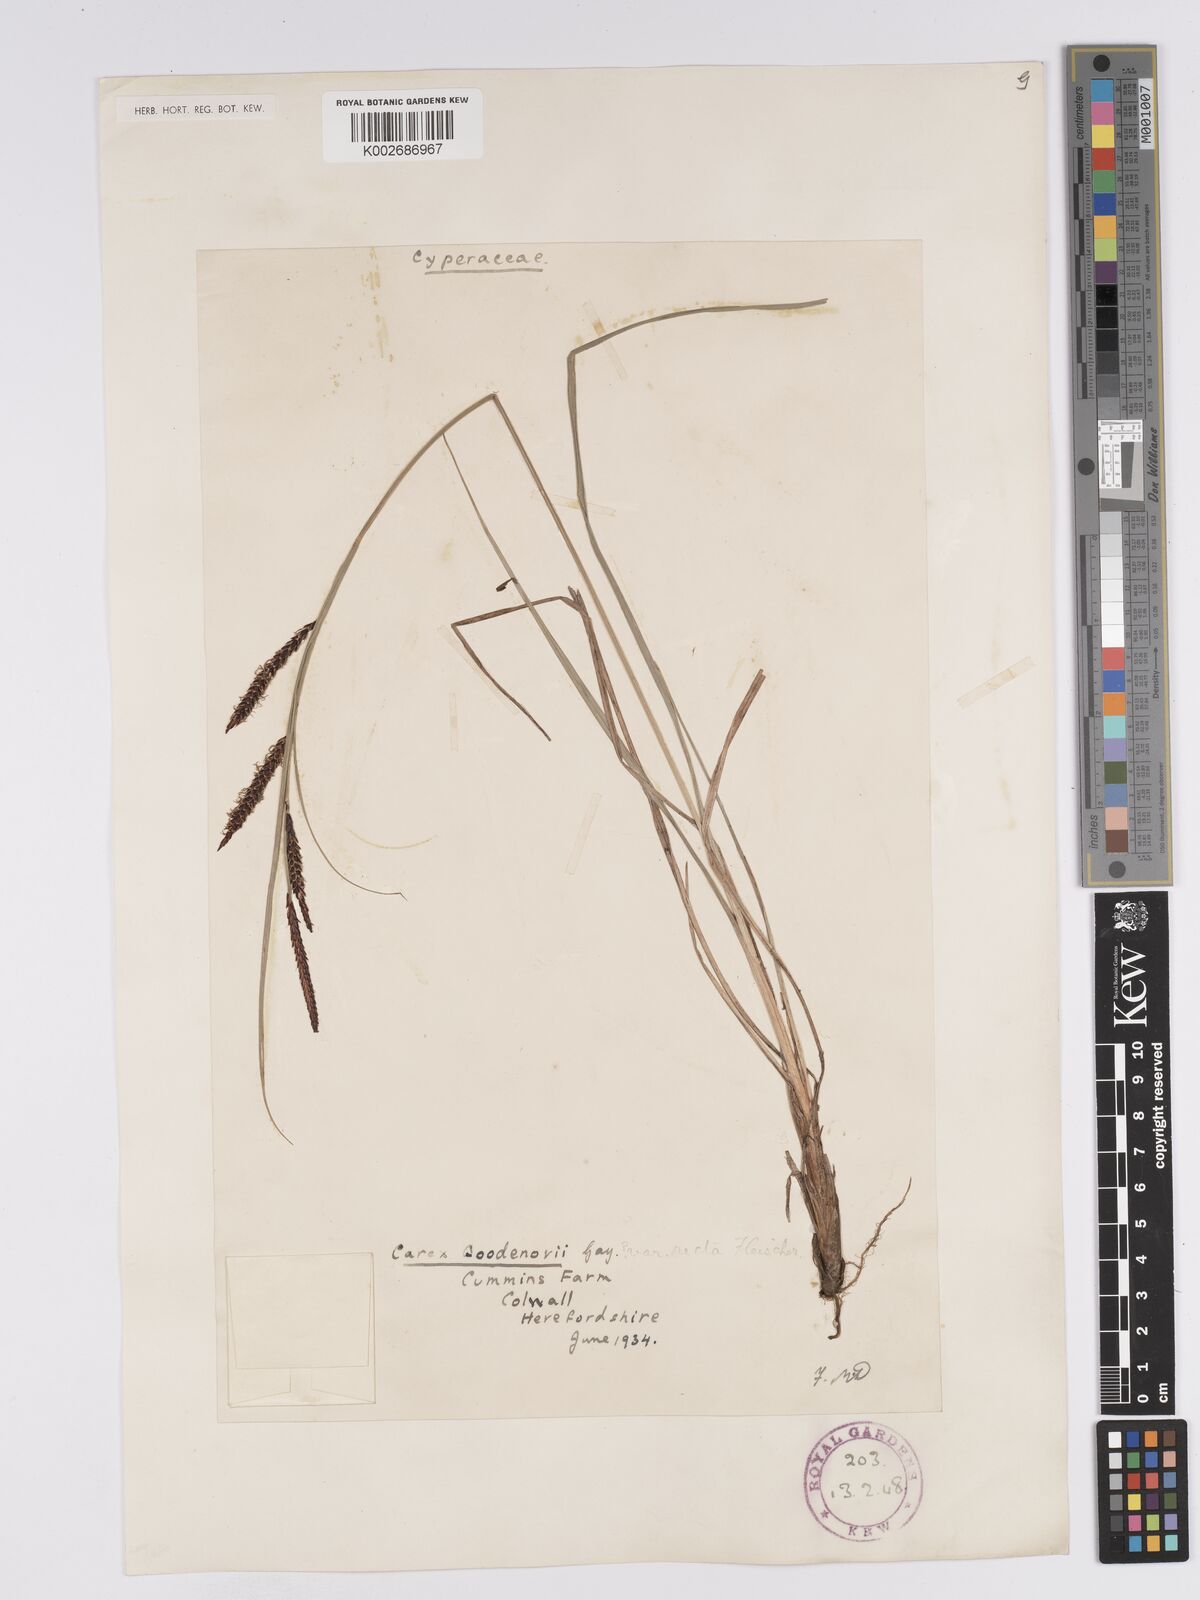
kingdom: Plantae
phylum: Tracheophyta
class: Liliopsida
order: Poales
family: Cyperaceae
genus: Carex
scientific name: Carex nigra
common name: Common sedge
